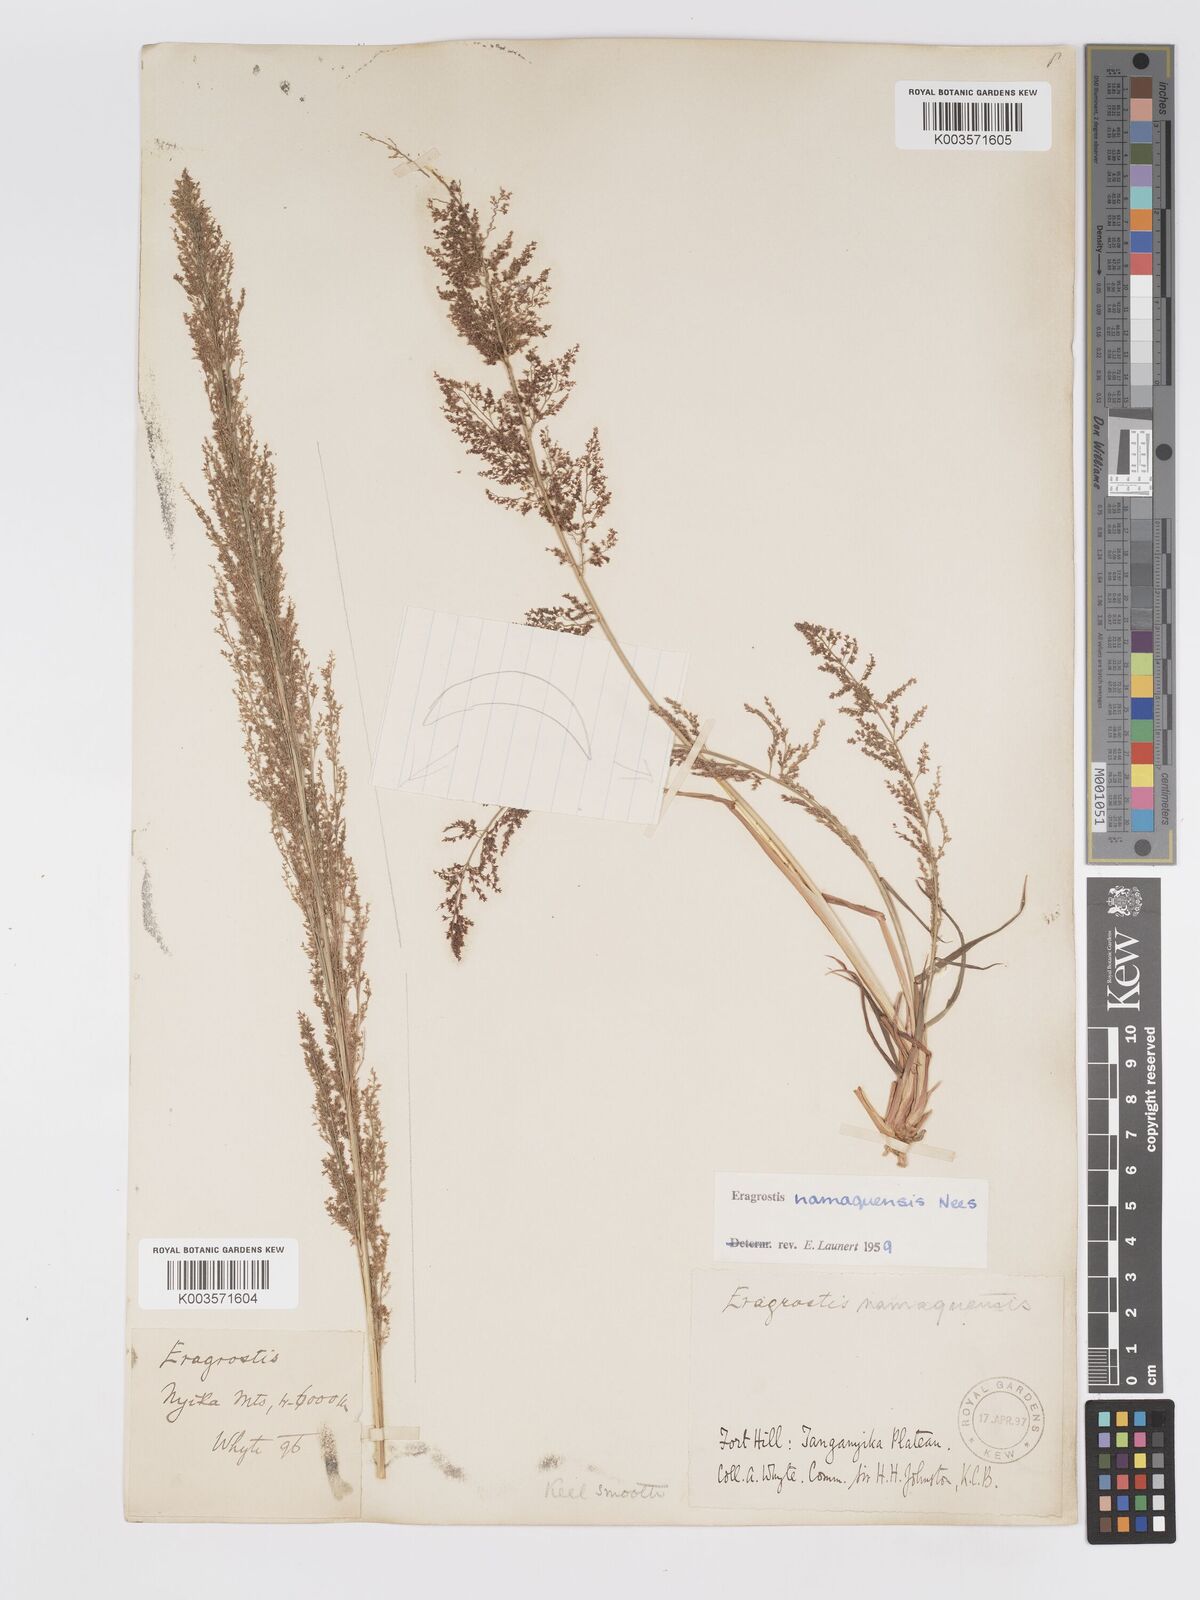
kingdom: Plantae
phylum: Tracheophyta
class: Liliopsida
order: Poales
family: Poaceae
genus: Eragrostis
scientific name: Eragrostis japonica
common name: Pond lovegrass
